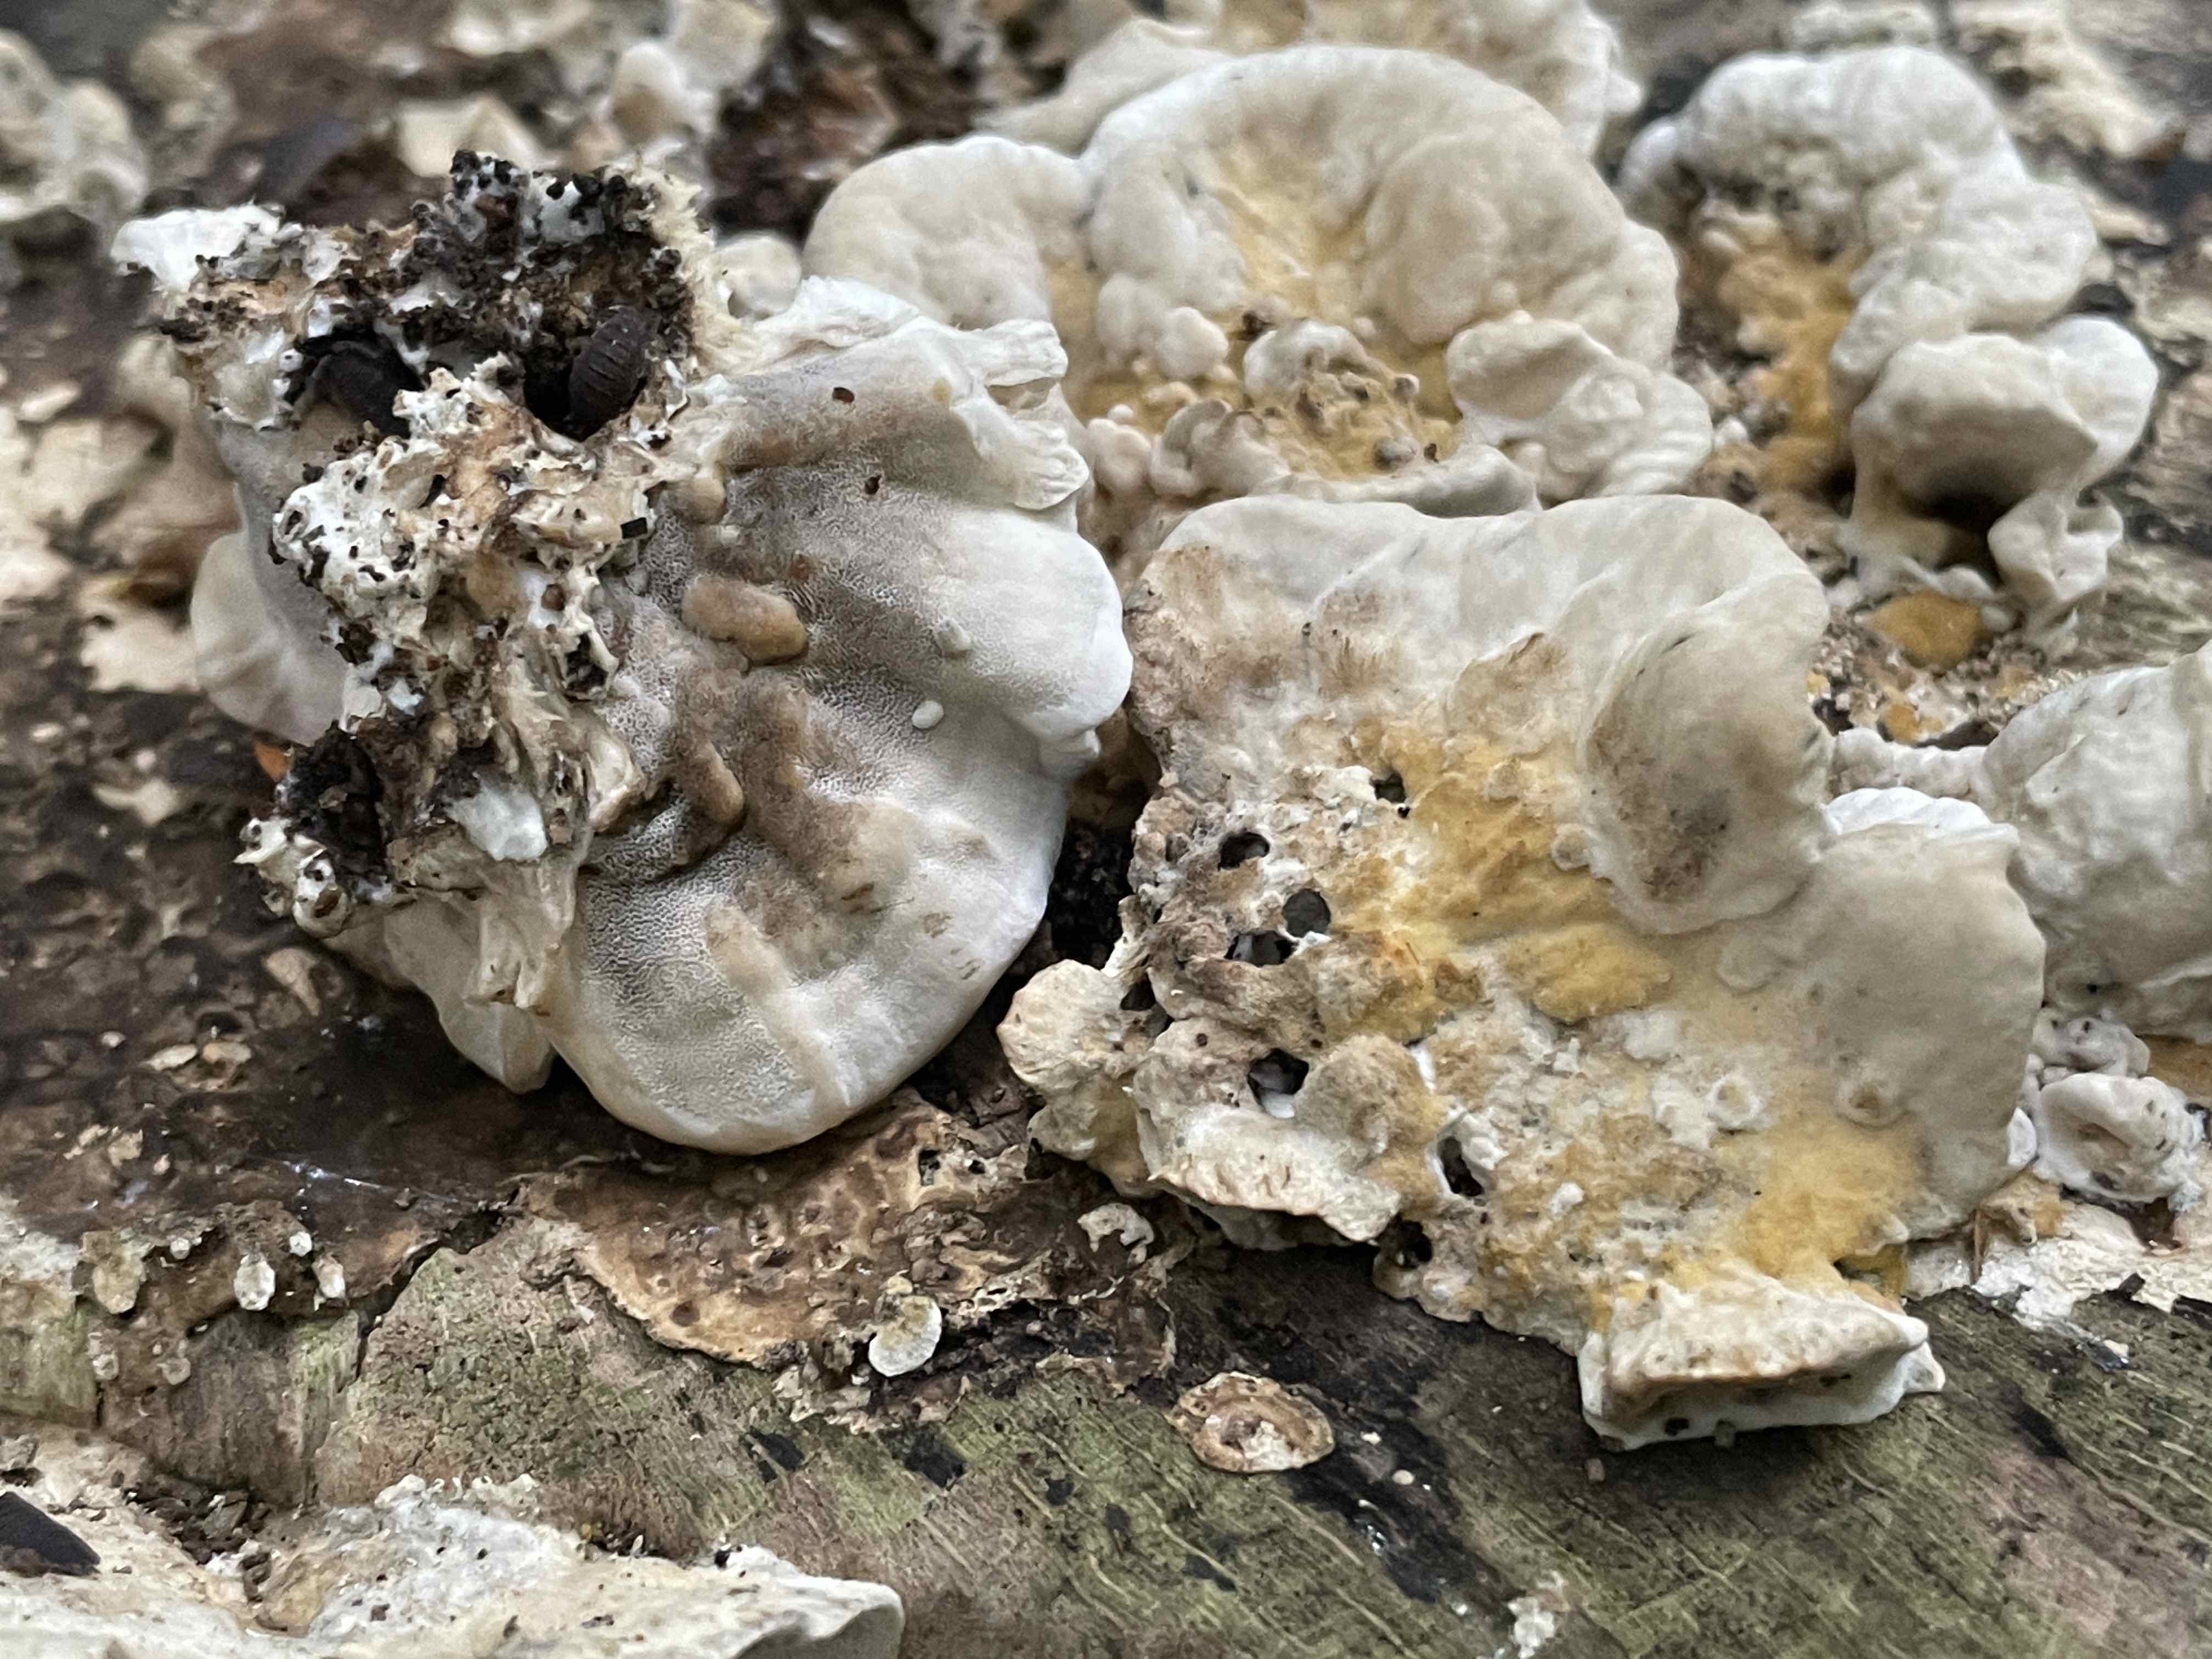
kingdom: Fungi
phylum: Basidiomycota
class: Agaricomycetes
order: Polyporales
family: Phanerochaetaceae
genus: Bjerkandera
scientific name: Bjerkandera adusta
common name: sveden sodporesvamp
